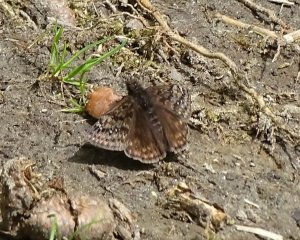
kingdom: Animalia
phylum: Arthropoda
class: Insecta
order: Lepidoptera
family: Hesperiidae
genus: Gesta
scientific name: Gesta
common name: Juvenal's Duskywing
